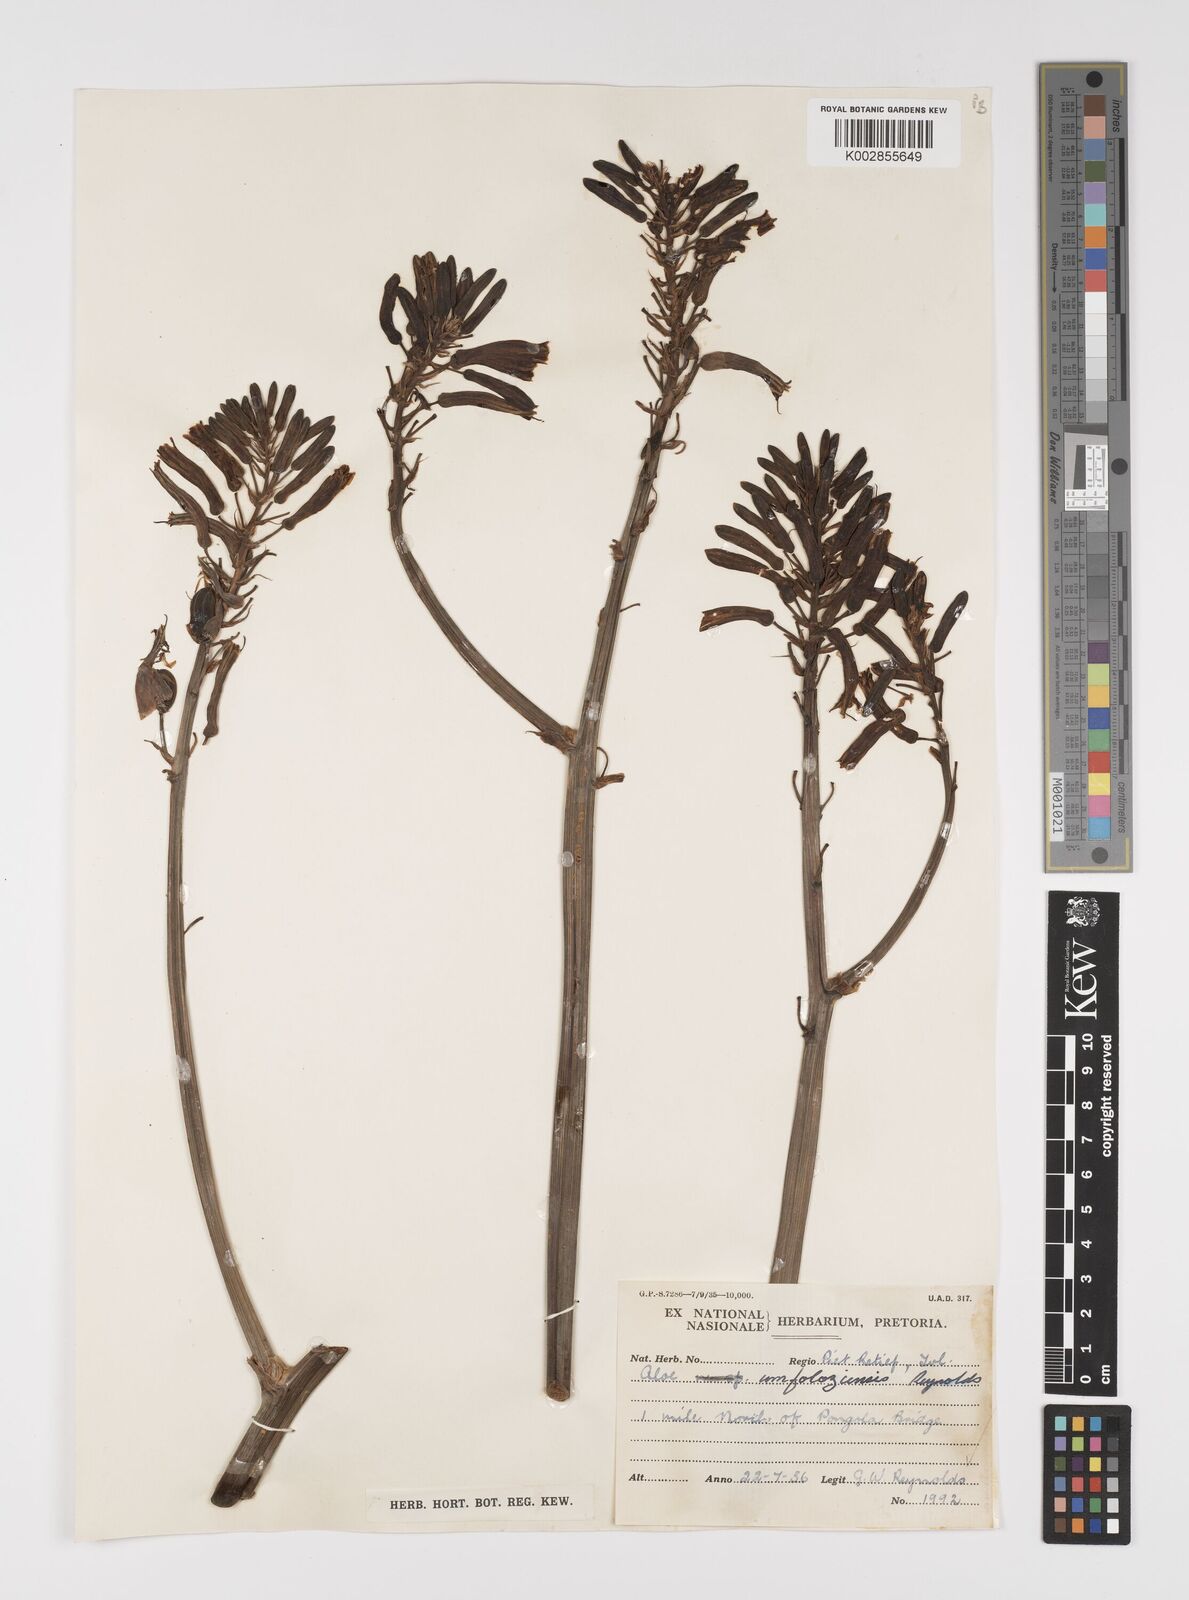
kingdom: Plantae
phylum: Tracheophyta
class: Liliopsida
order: Asparagales
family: Asphodelaceae
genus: Aloe
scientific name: Aloe umfoloziensis
